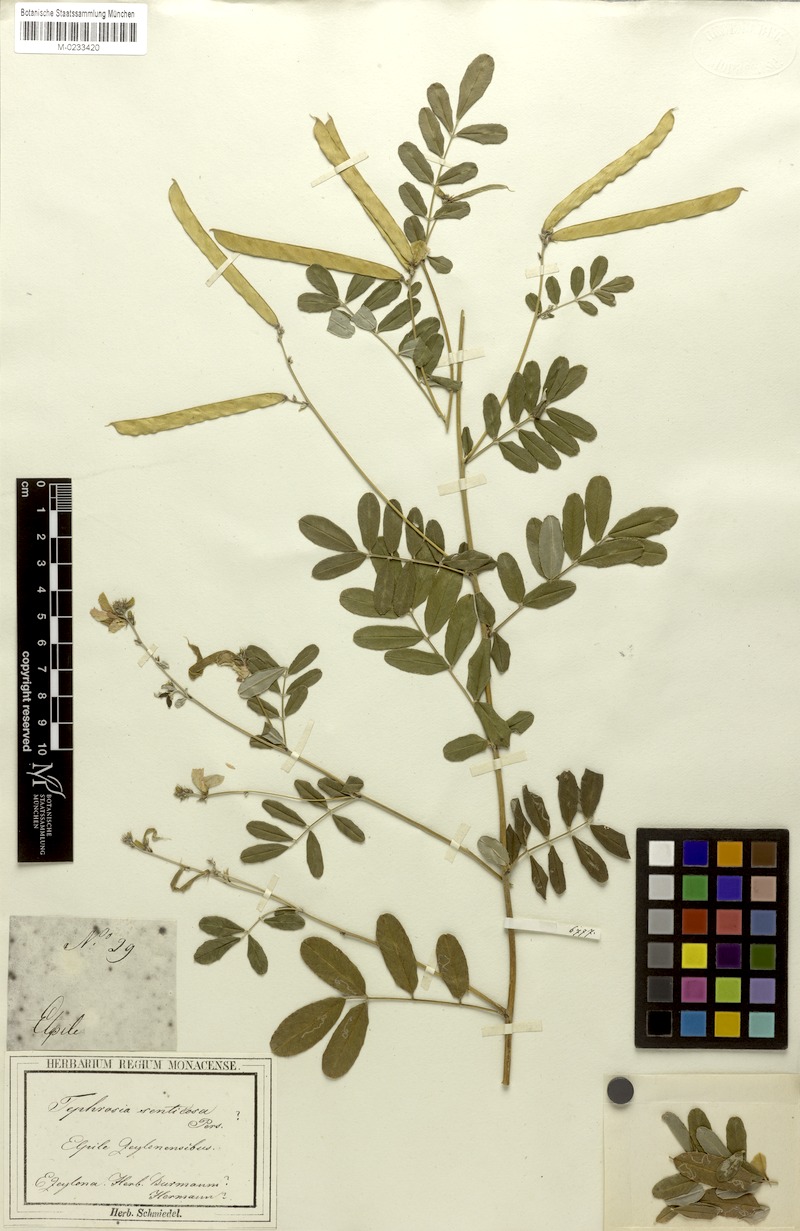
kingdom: Plantae
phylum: Tracheophyta
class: Magnoliopsida
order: Fabales
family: Fabaceae
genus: Tephrosia
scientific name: Tephrosia senticosa
